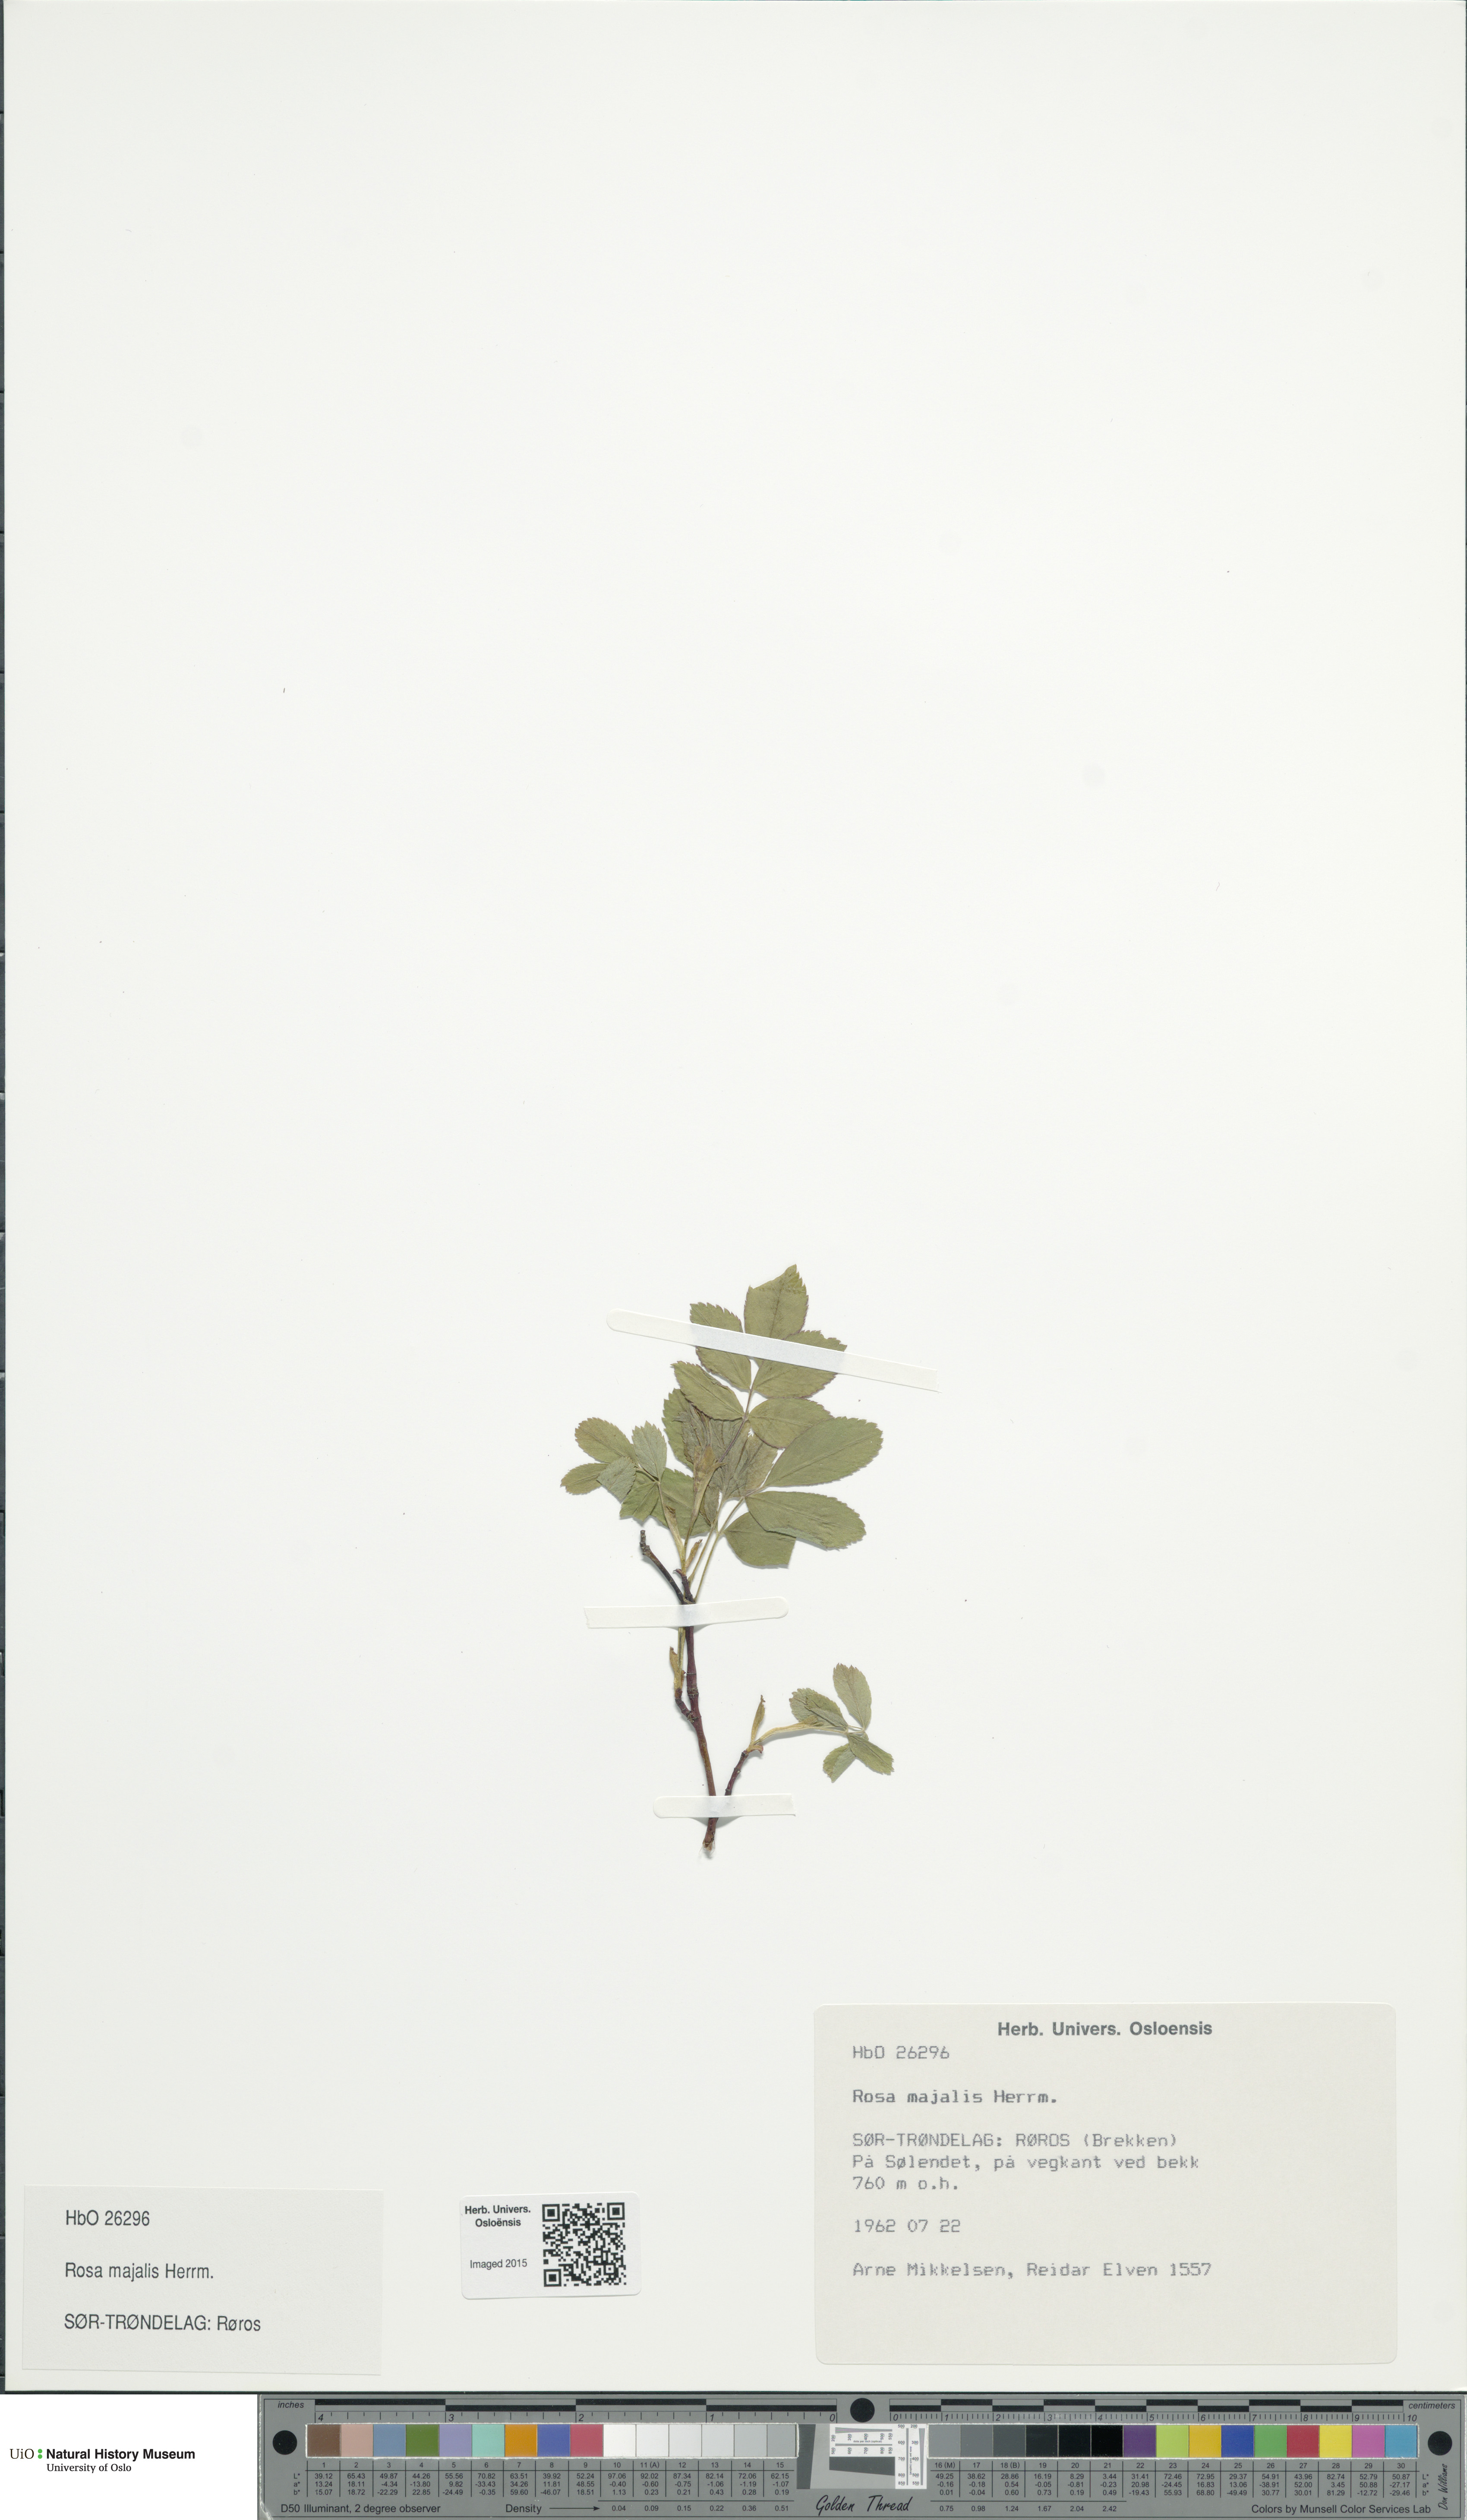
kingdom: Plantae
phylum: Tracheophyta
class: Magnoliopsida
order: Rosales
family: Rosaceae
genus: Rosa
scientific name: Rosa majalis
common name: Cinnamon rose
